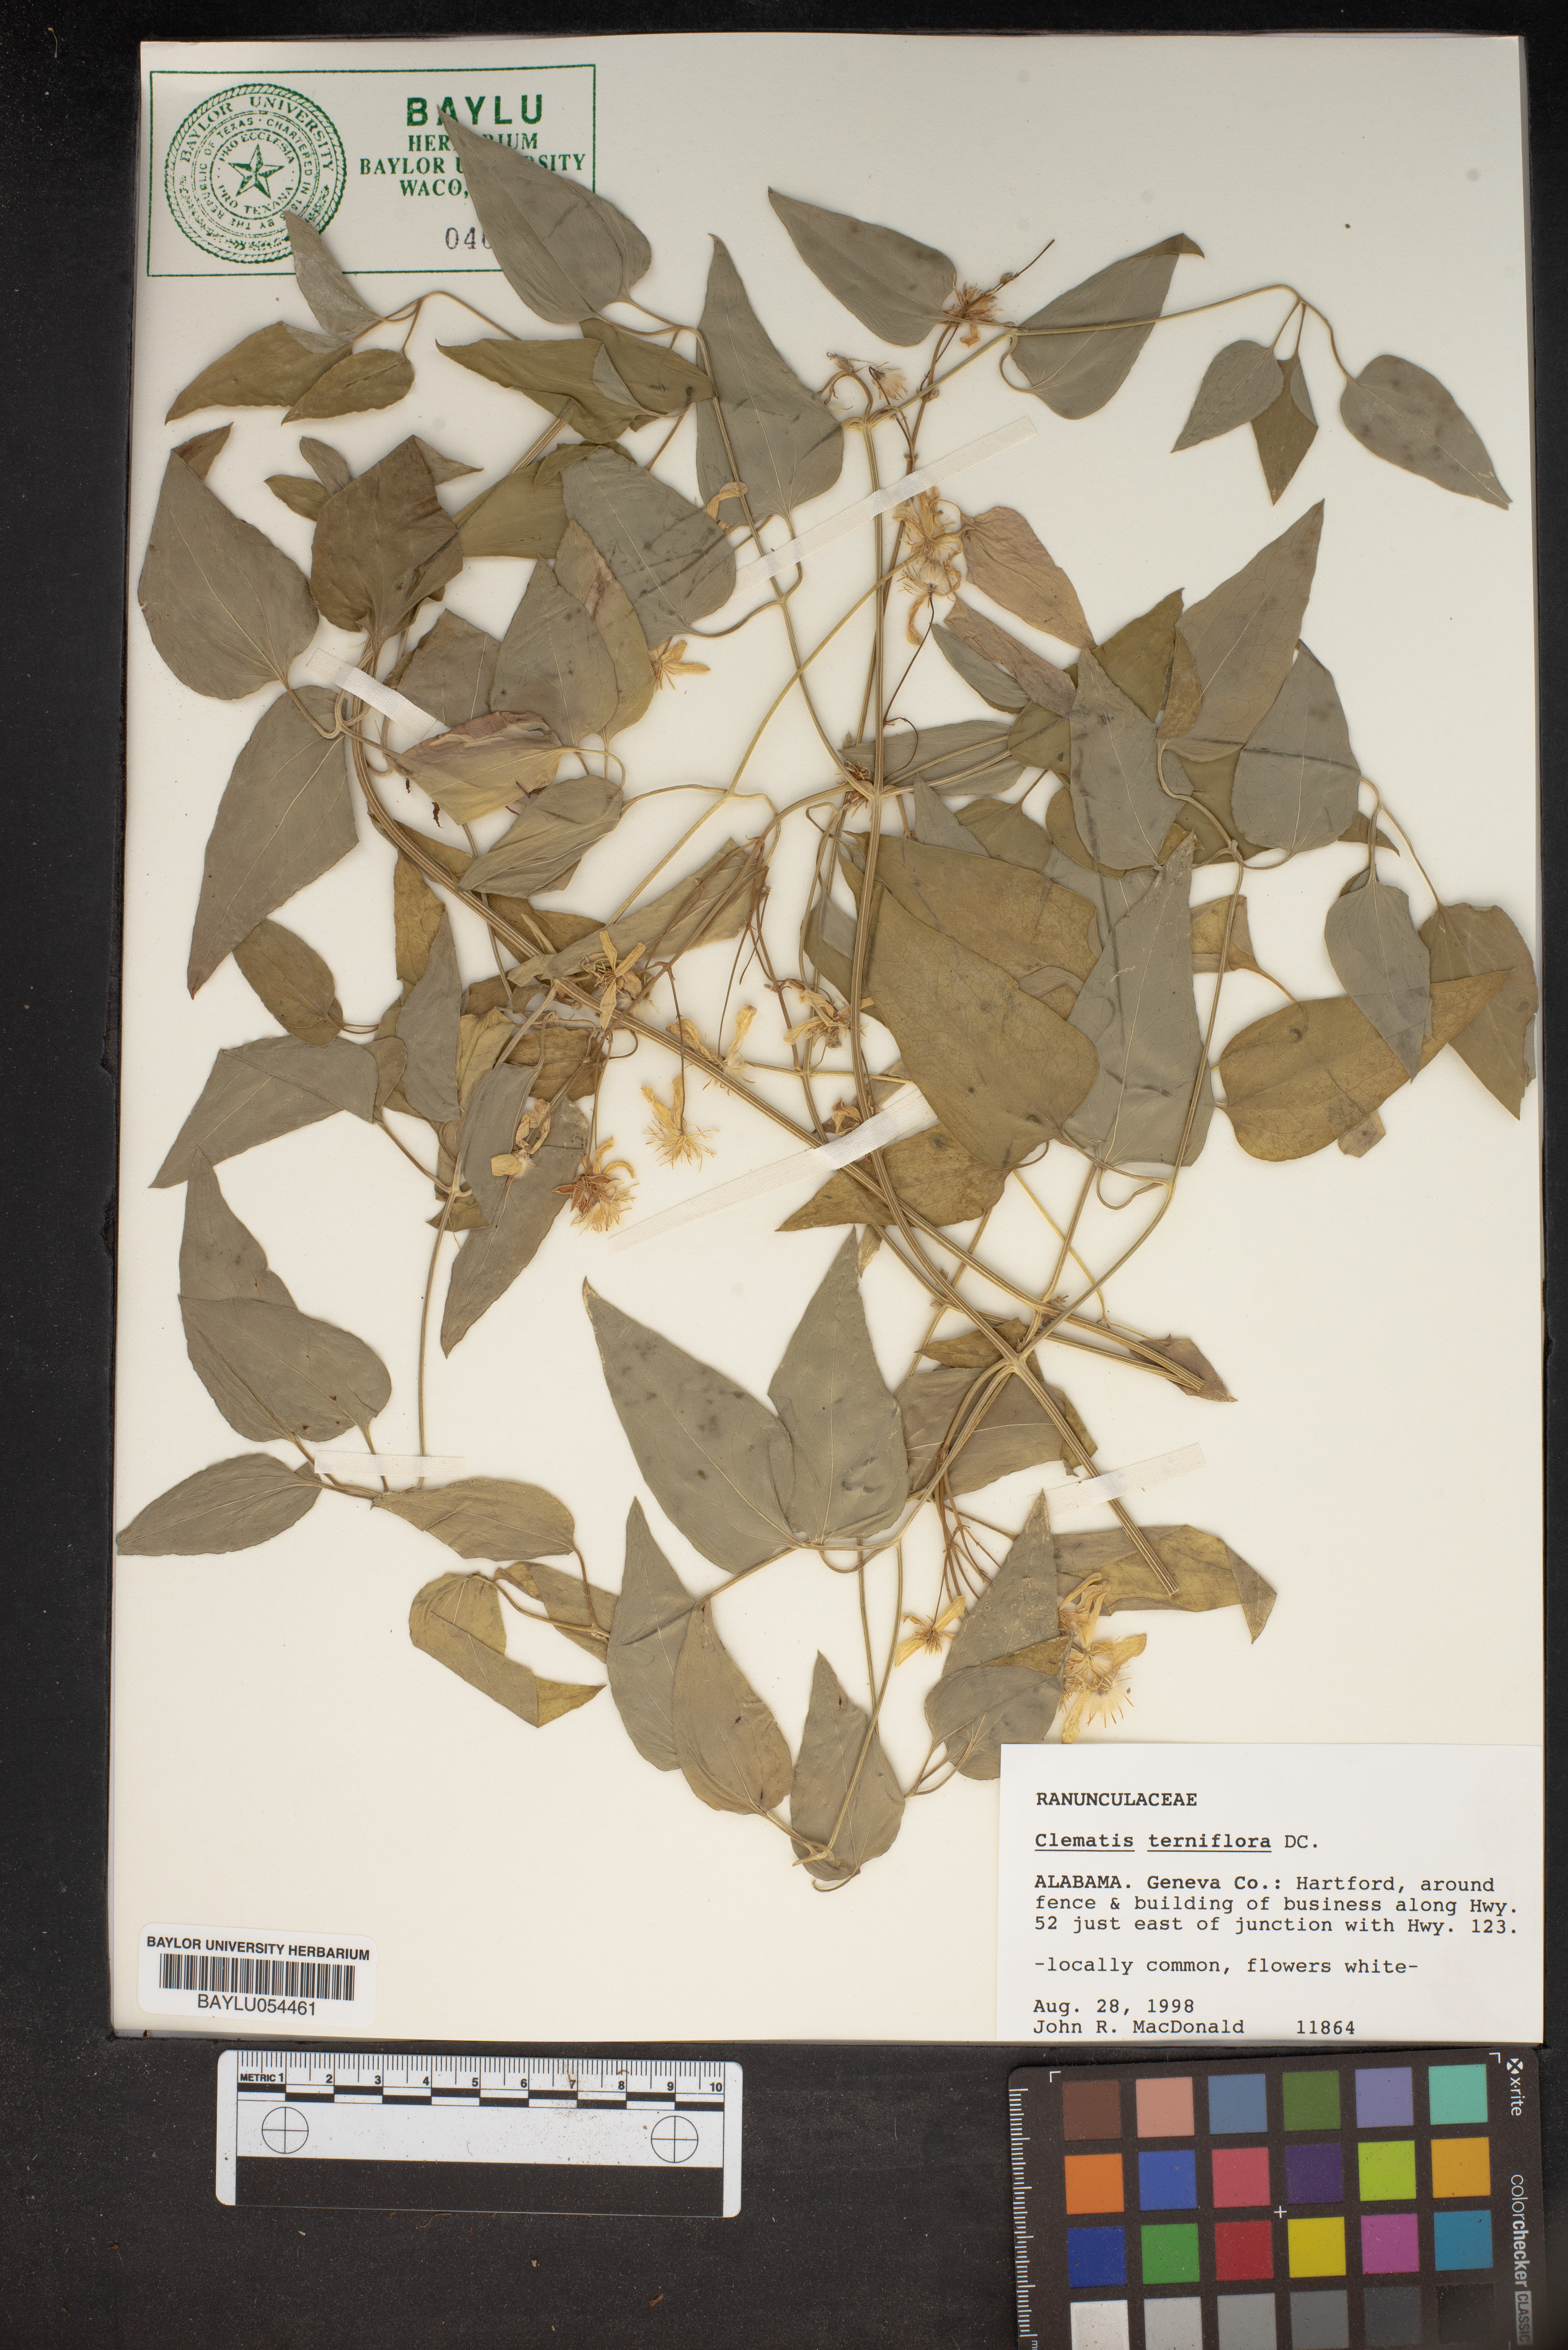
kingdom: Plantae
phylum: Tracheophyta
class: Magnoliopsida
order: Ranunculales
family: Ranunculaceae
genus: Clematis
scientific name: Clematis terniflora
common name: Sweet autumn clematis
